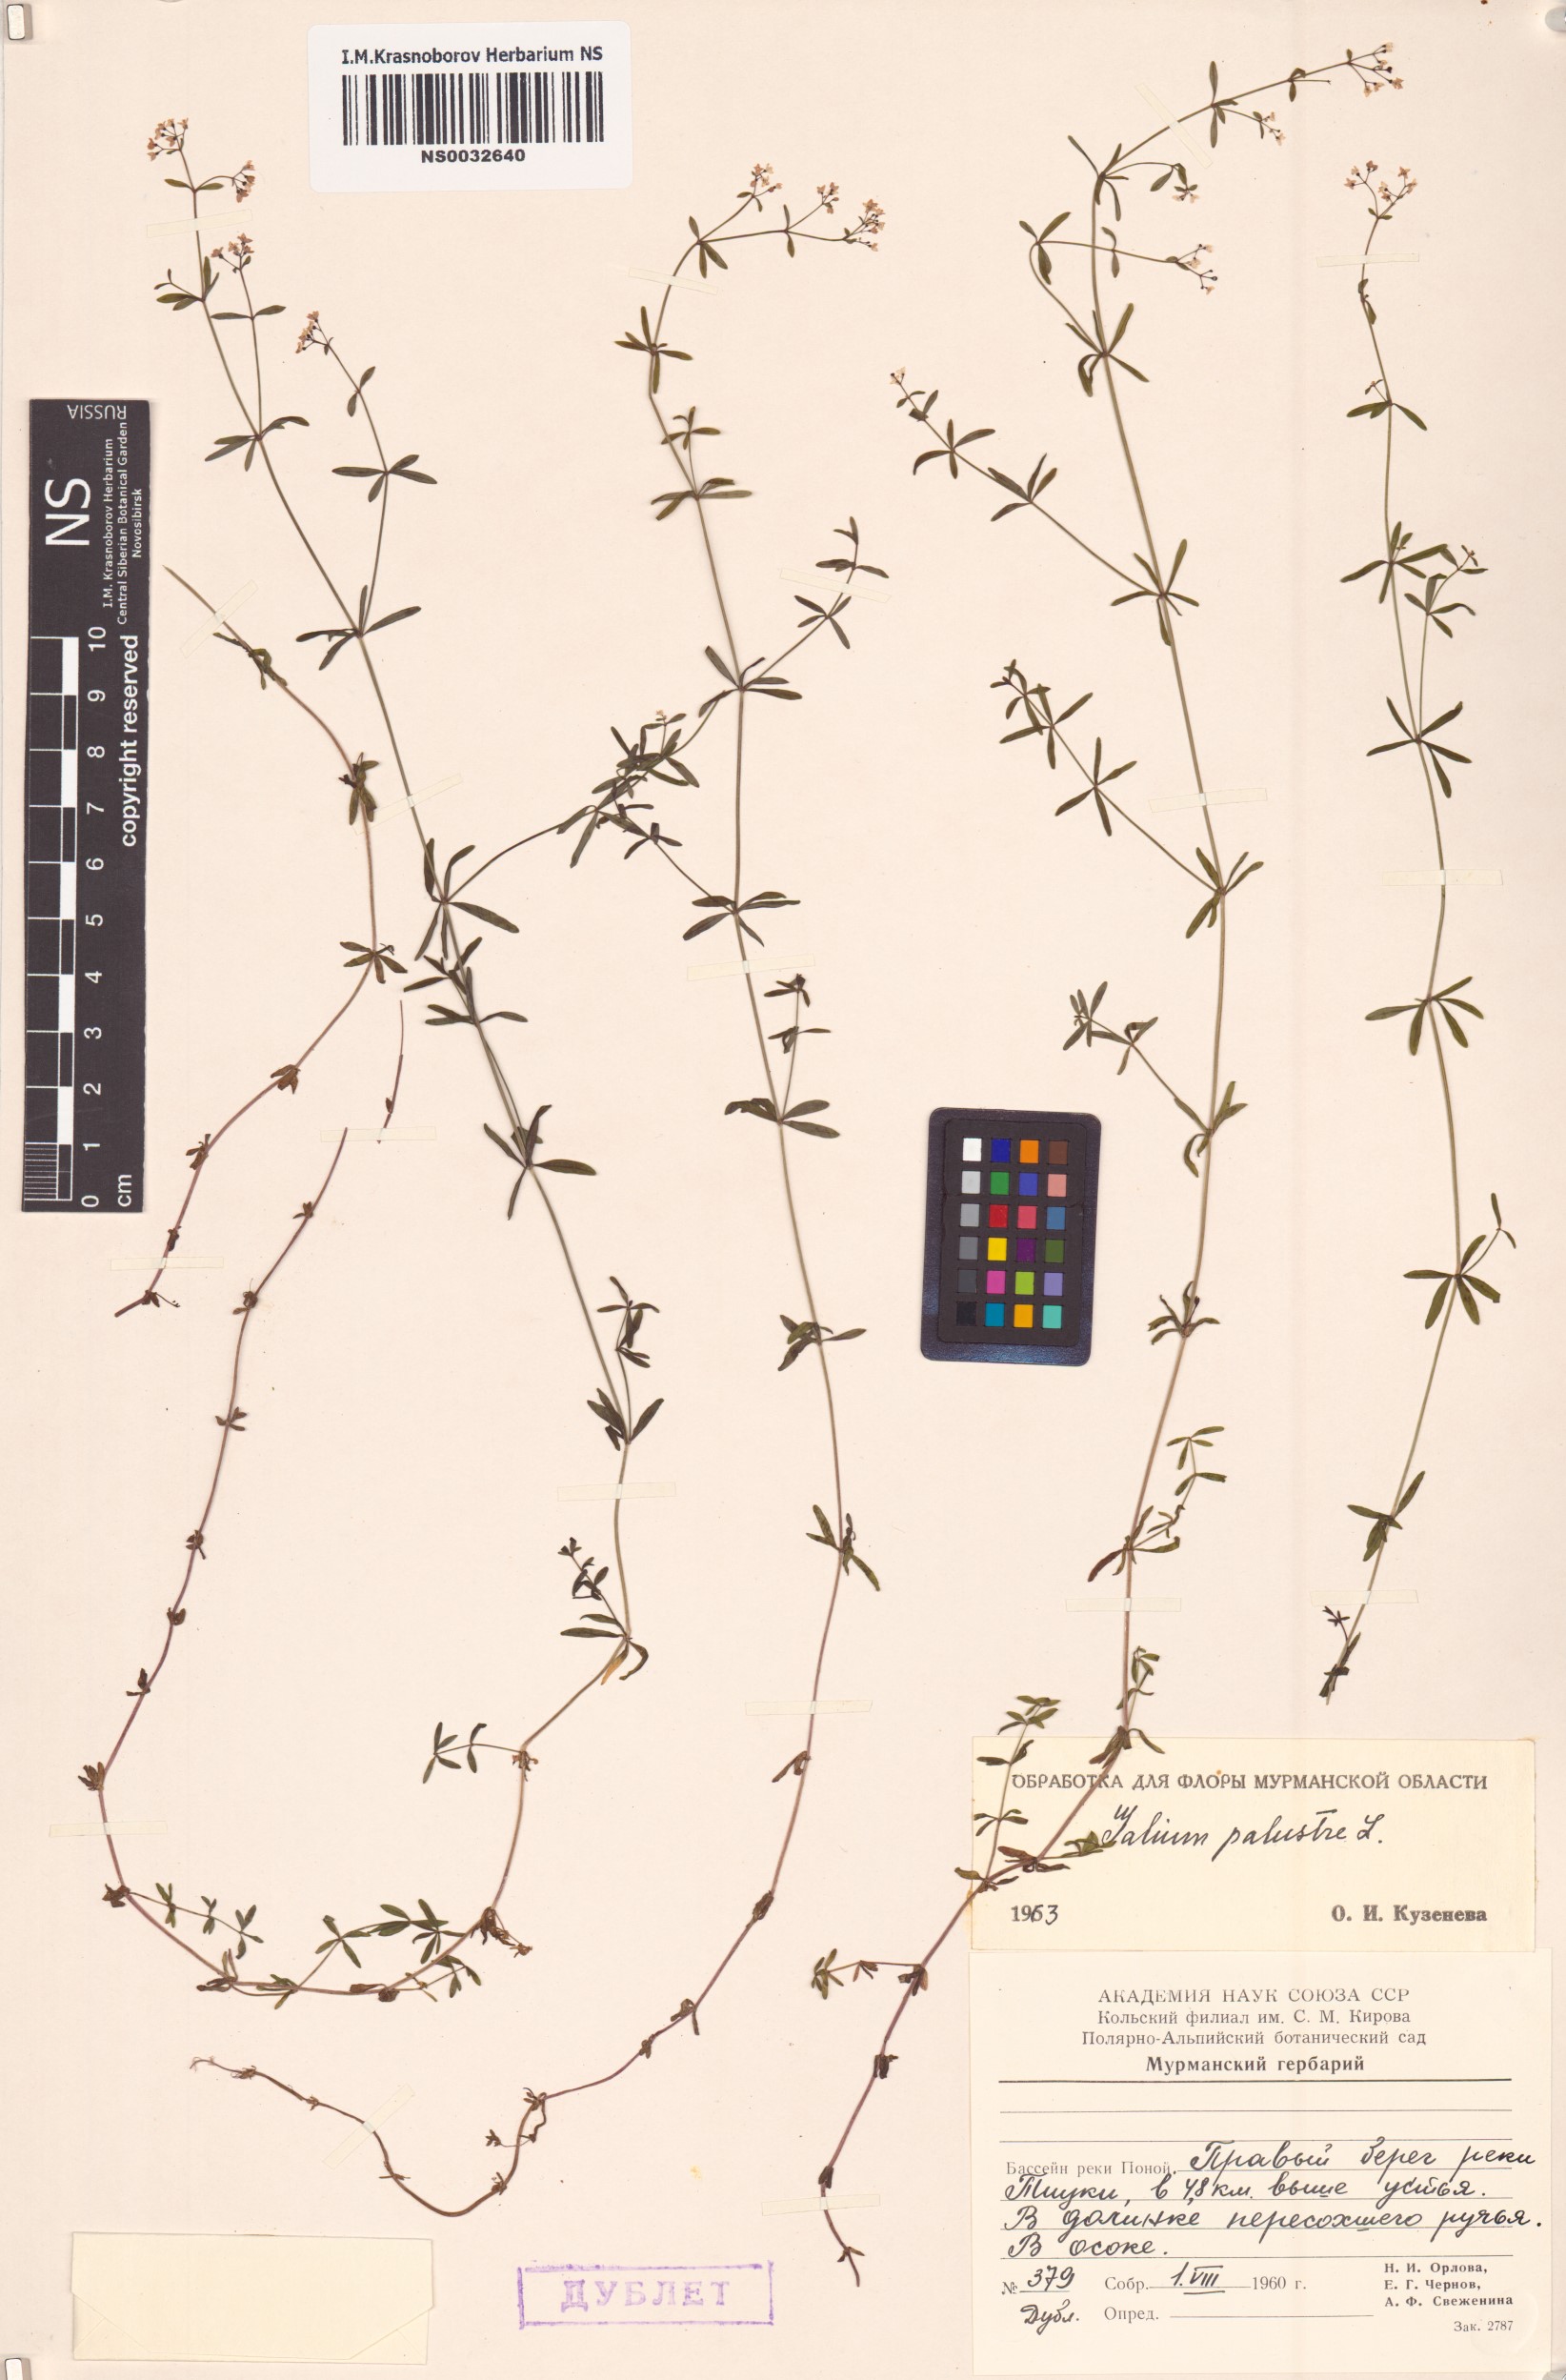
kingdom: Plantae
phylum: Tracheophyta
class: Magnoliopsida
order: Gentianales
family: Rubiaceae
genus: Galium
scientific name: Galium palustre
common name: Common marsh-bedstraw
